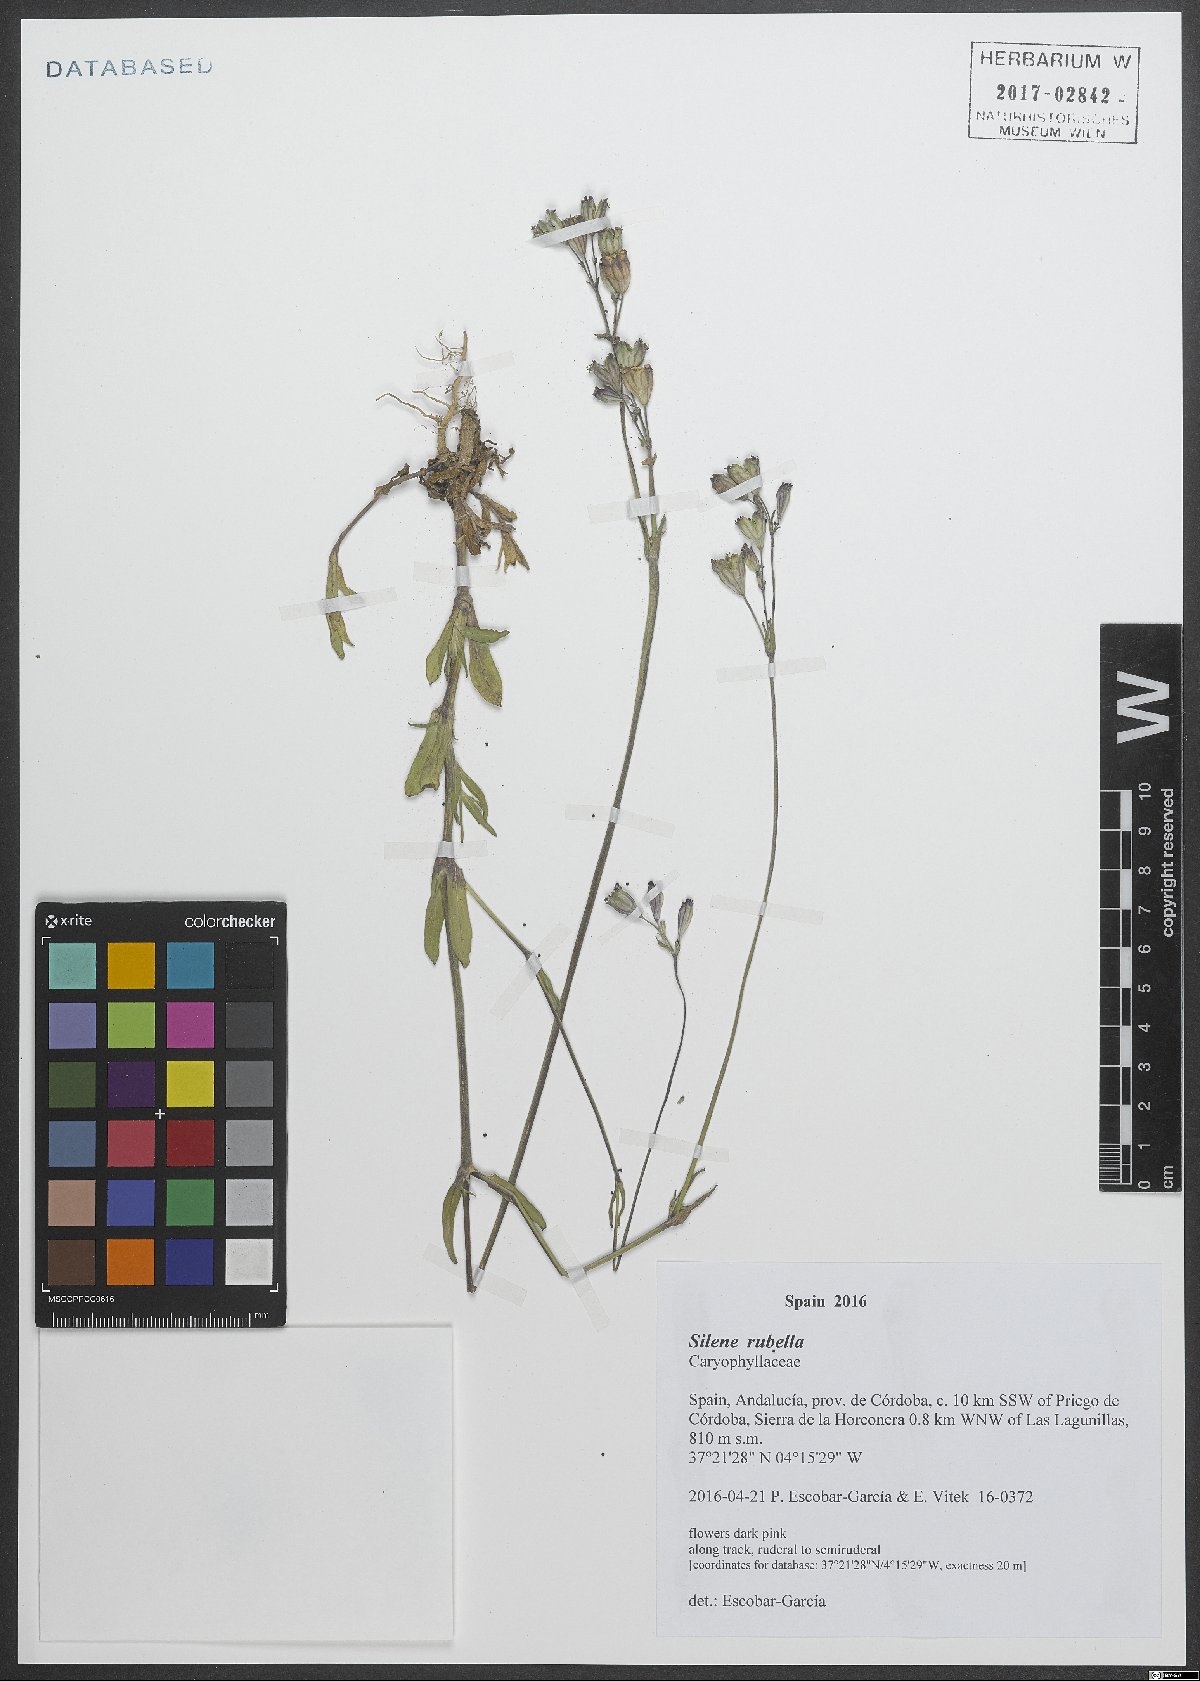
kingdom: Plantae
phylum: Tracheophyta
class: Magnoliopsida
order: Caryophyllales
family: Caryophyllaceae
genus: Silene
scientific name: Silene rubella
